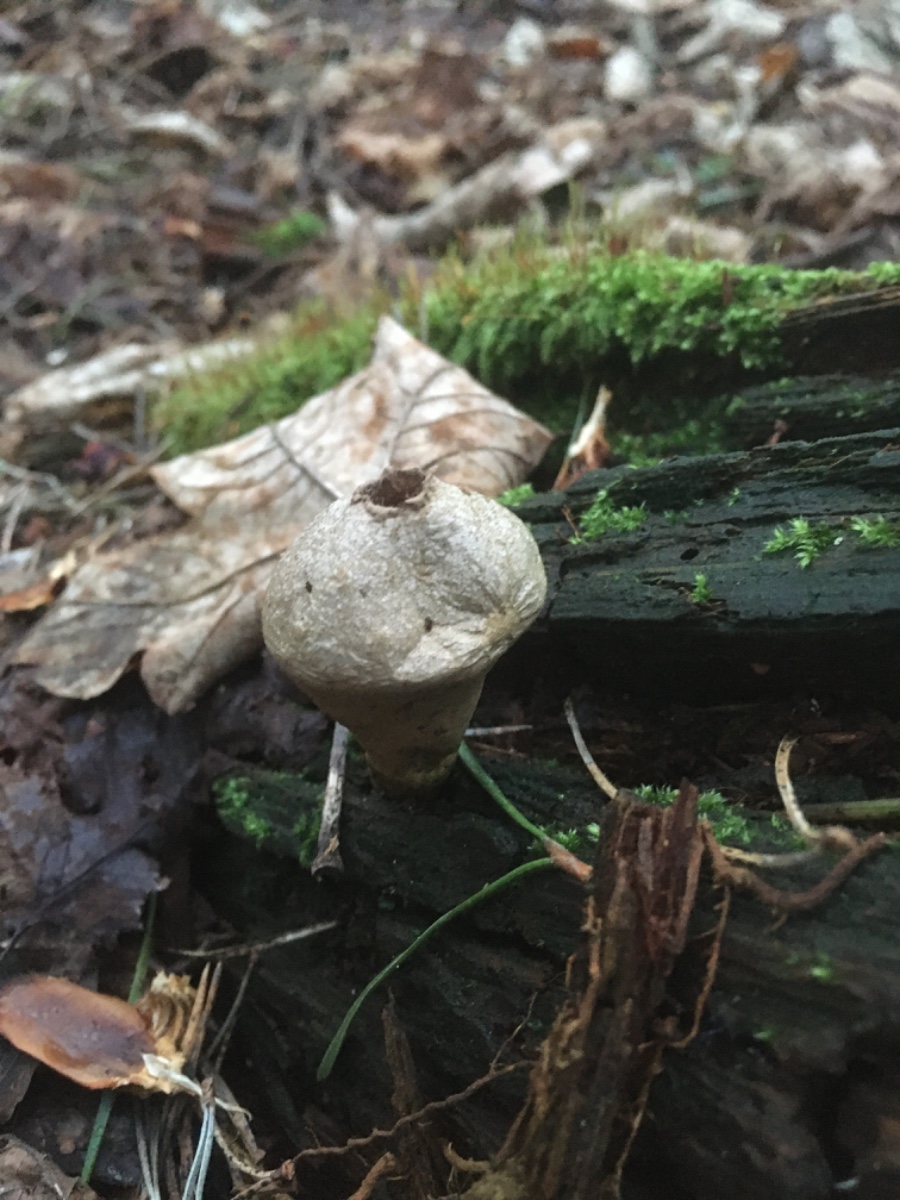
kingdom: Fungi
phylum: Basidiomycota
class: Agaricomycetes
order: Agaricales
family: Lycoperdaceae
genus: Apioperdon
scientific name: Apioperdon pyriforme
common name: pære-støvbold
